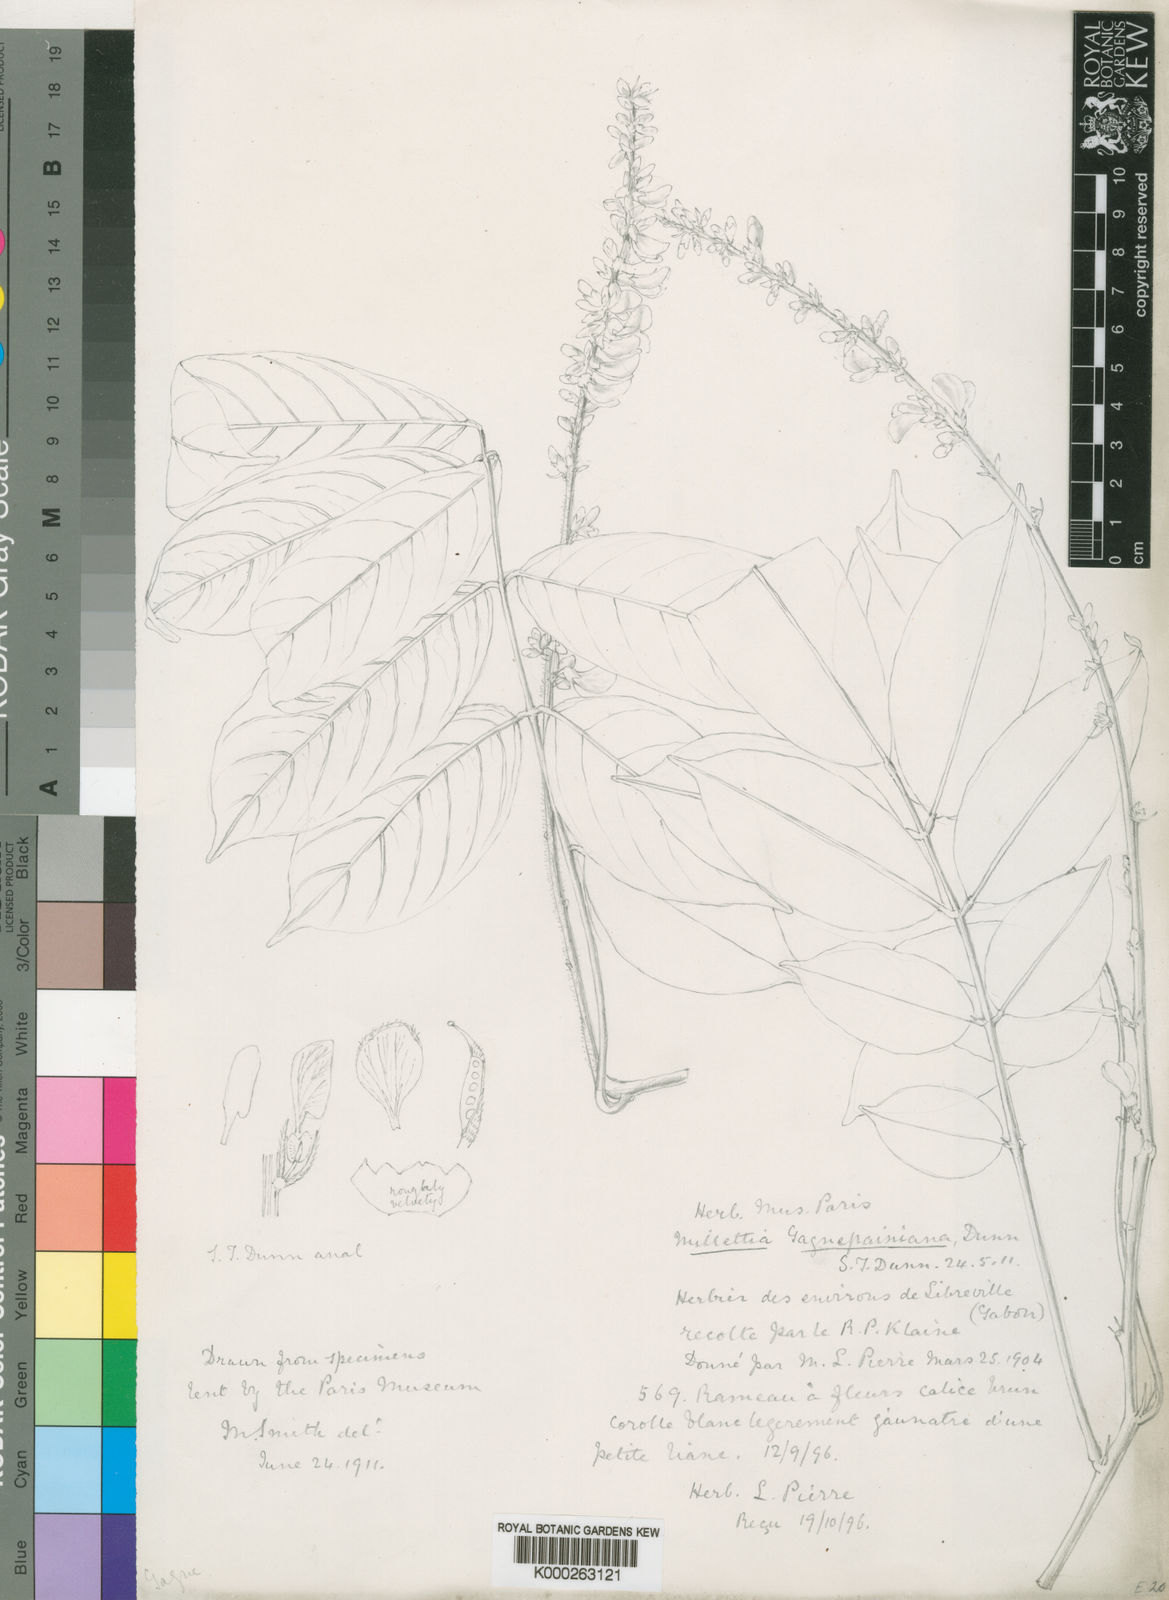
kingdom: Plantae
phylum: Tracheophyta
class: Magnoliopsida
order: Fabales
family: Fabaceae
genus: Millettia
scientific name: Millettia comosa
